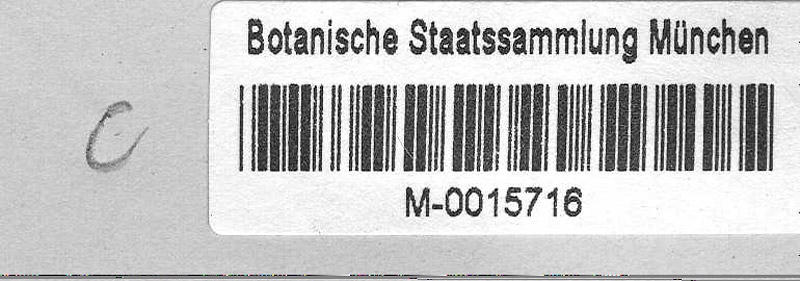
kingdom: Plantae
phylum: Tracheophyta
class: Magnoliopsida
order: Lamiales
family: Scrophulariaceae
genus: Verbascum
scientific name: Verbascum phlomoides
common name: Orange mullein
